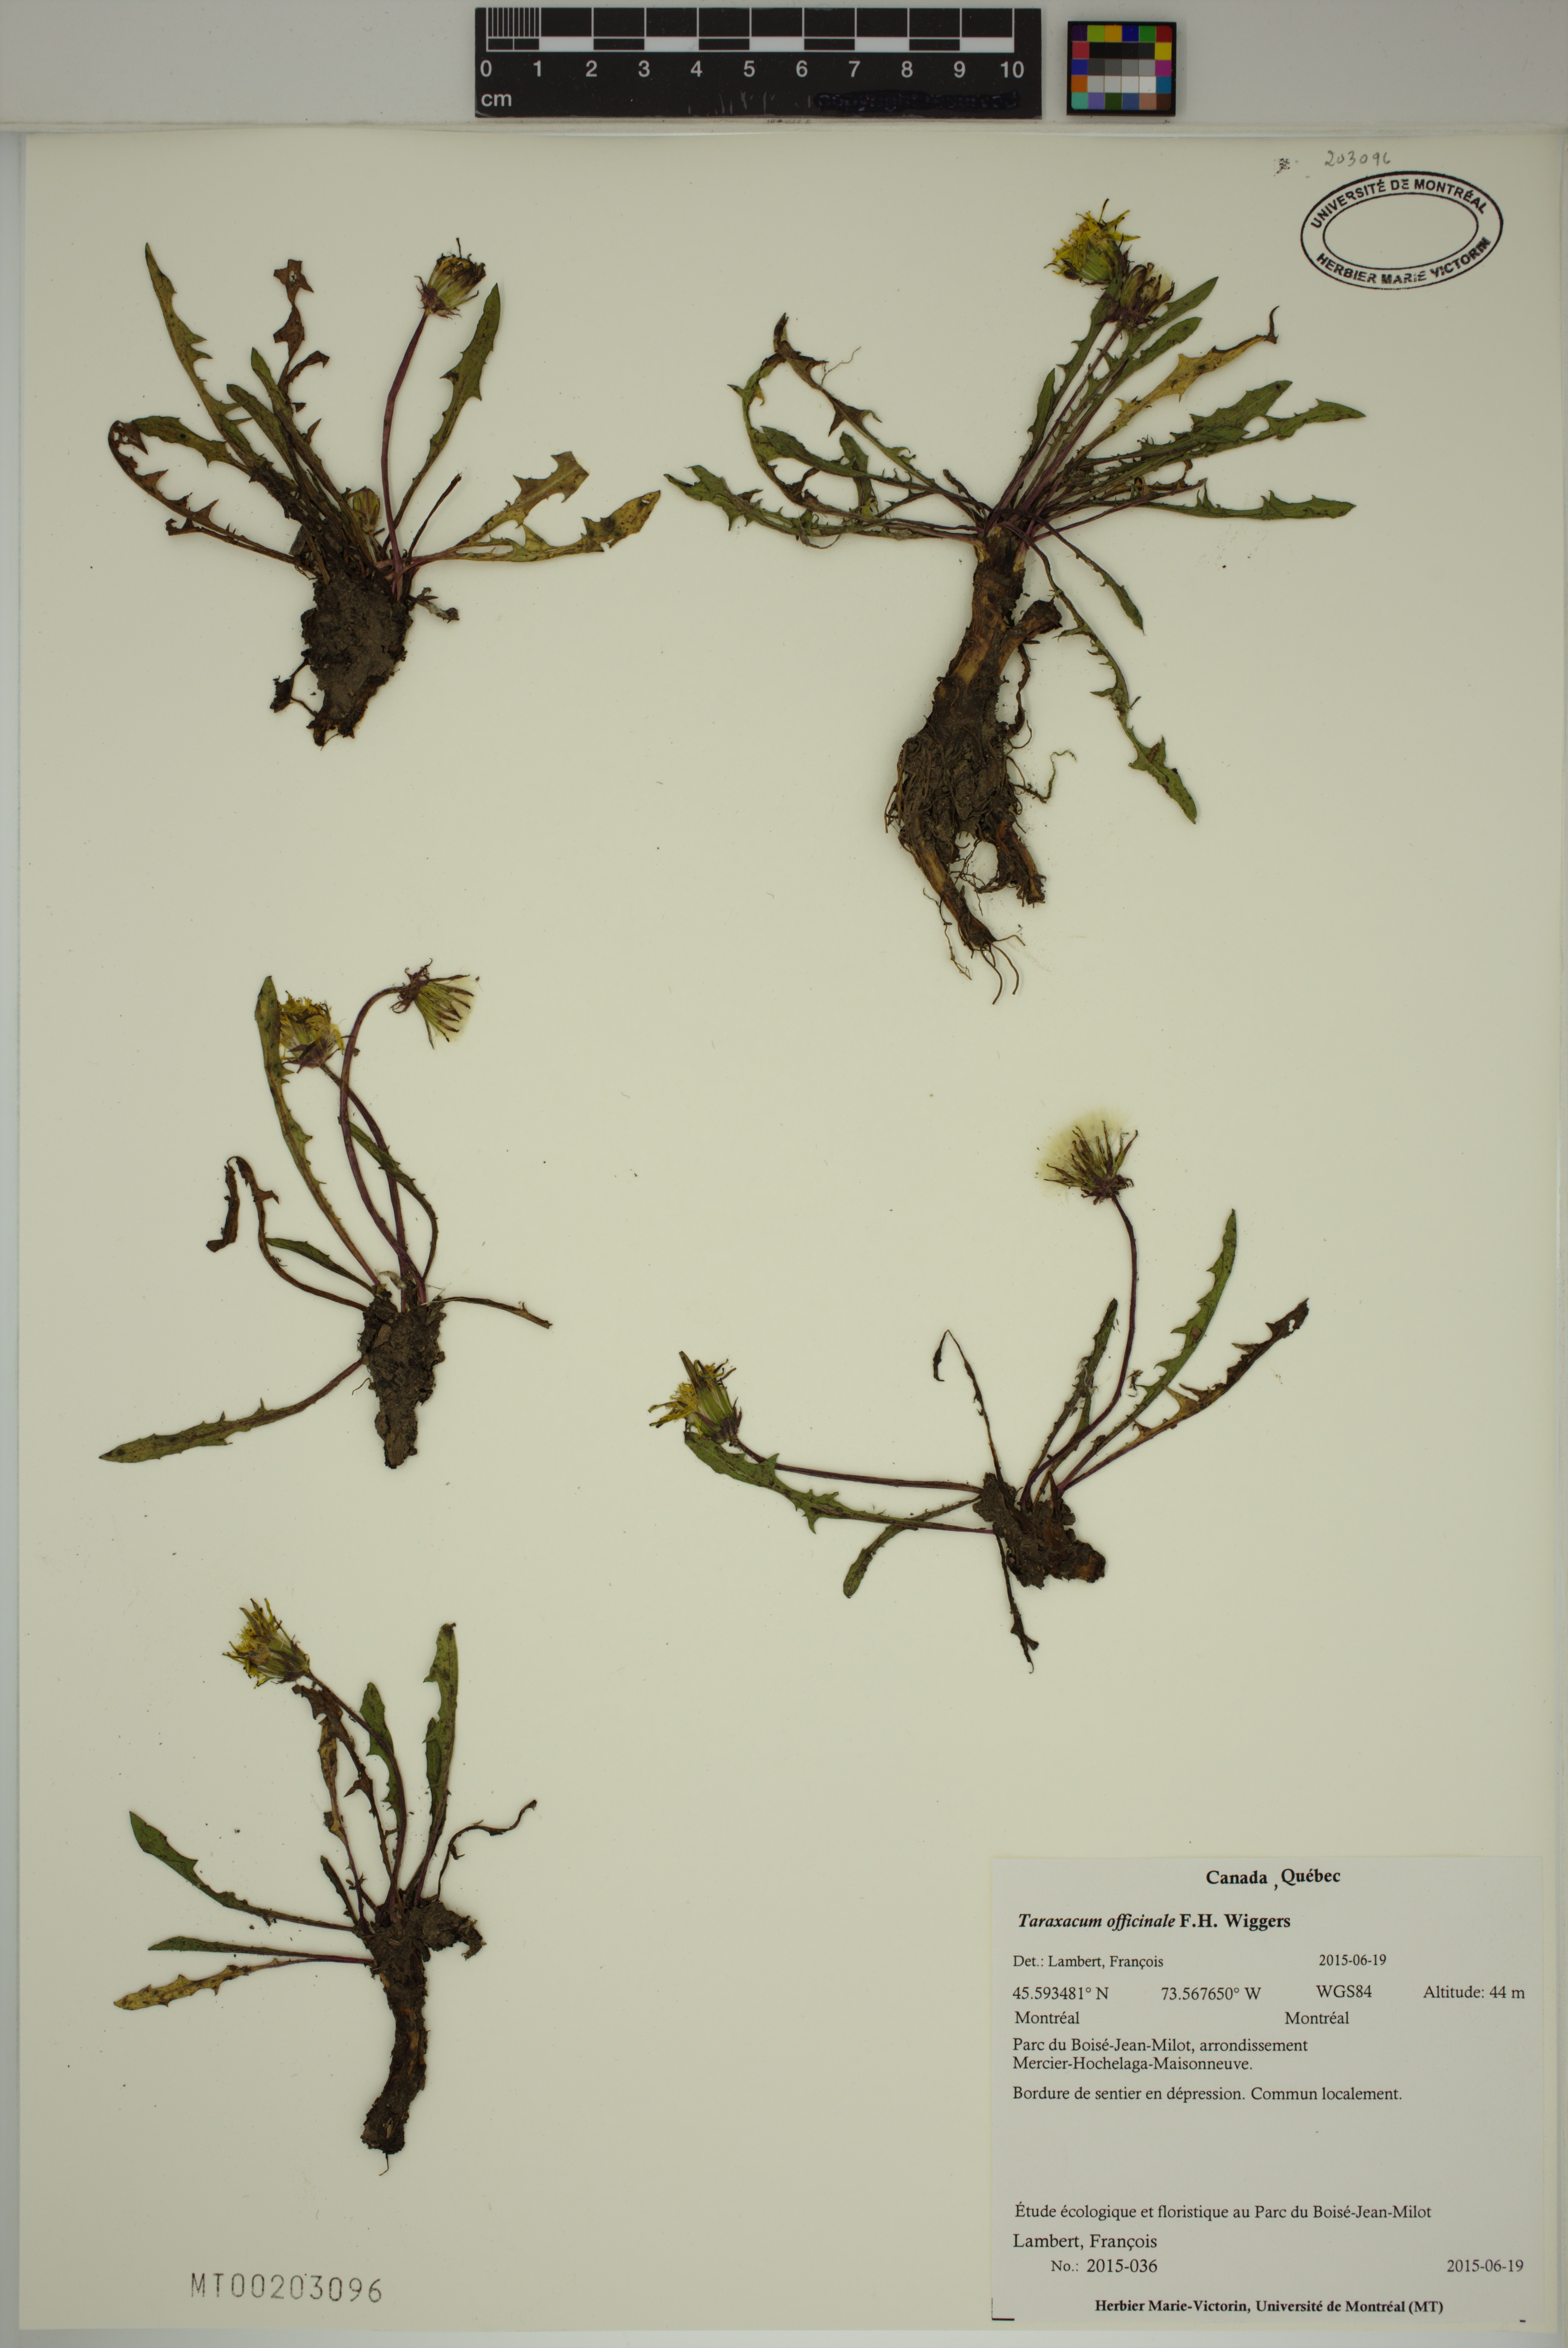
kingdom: Plantae
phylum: Tracheophyta
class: Magnoliopsida
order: Asterales
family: Asteraceae
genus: Taraxacum
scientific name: Taraxacum officinale
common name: Common dandelion
